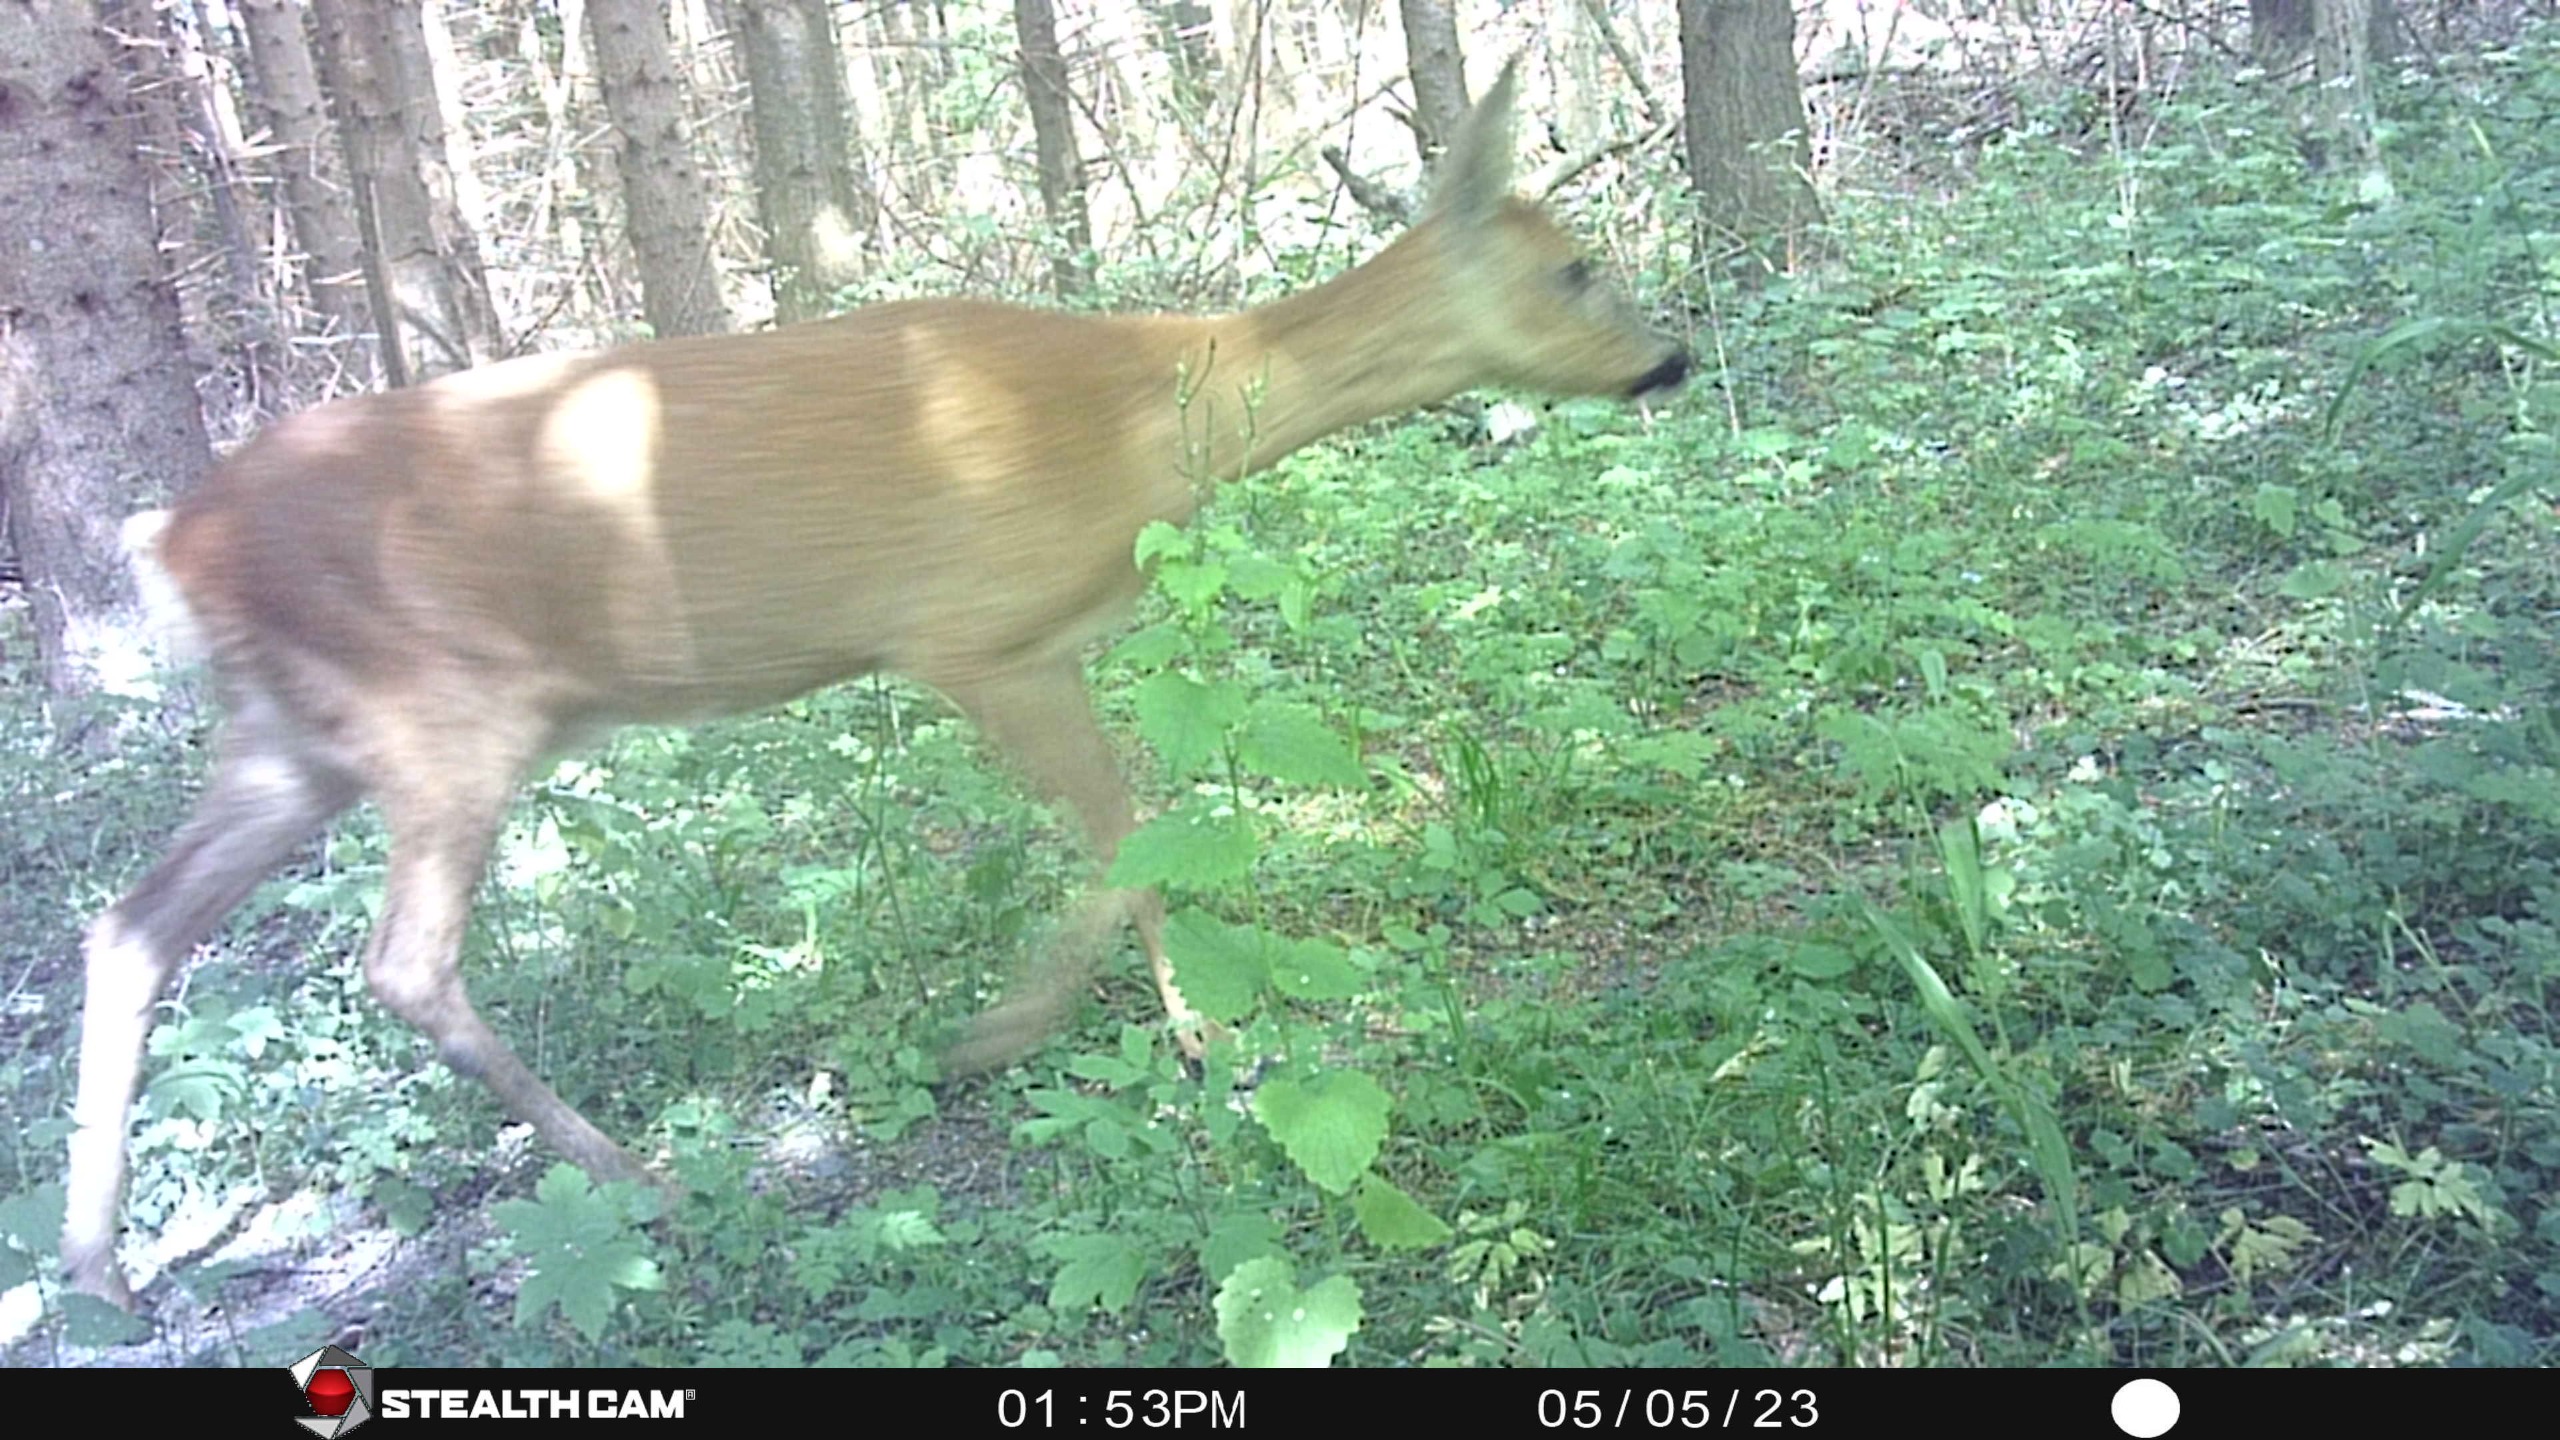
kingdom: Animalia
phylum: Chordata
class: Mammalia
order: Artiodactyla
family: Cervidae
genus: Capreolus
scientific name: Capreolus capreolus
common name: Rådyr
